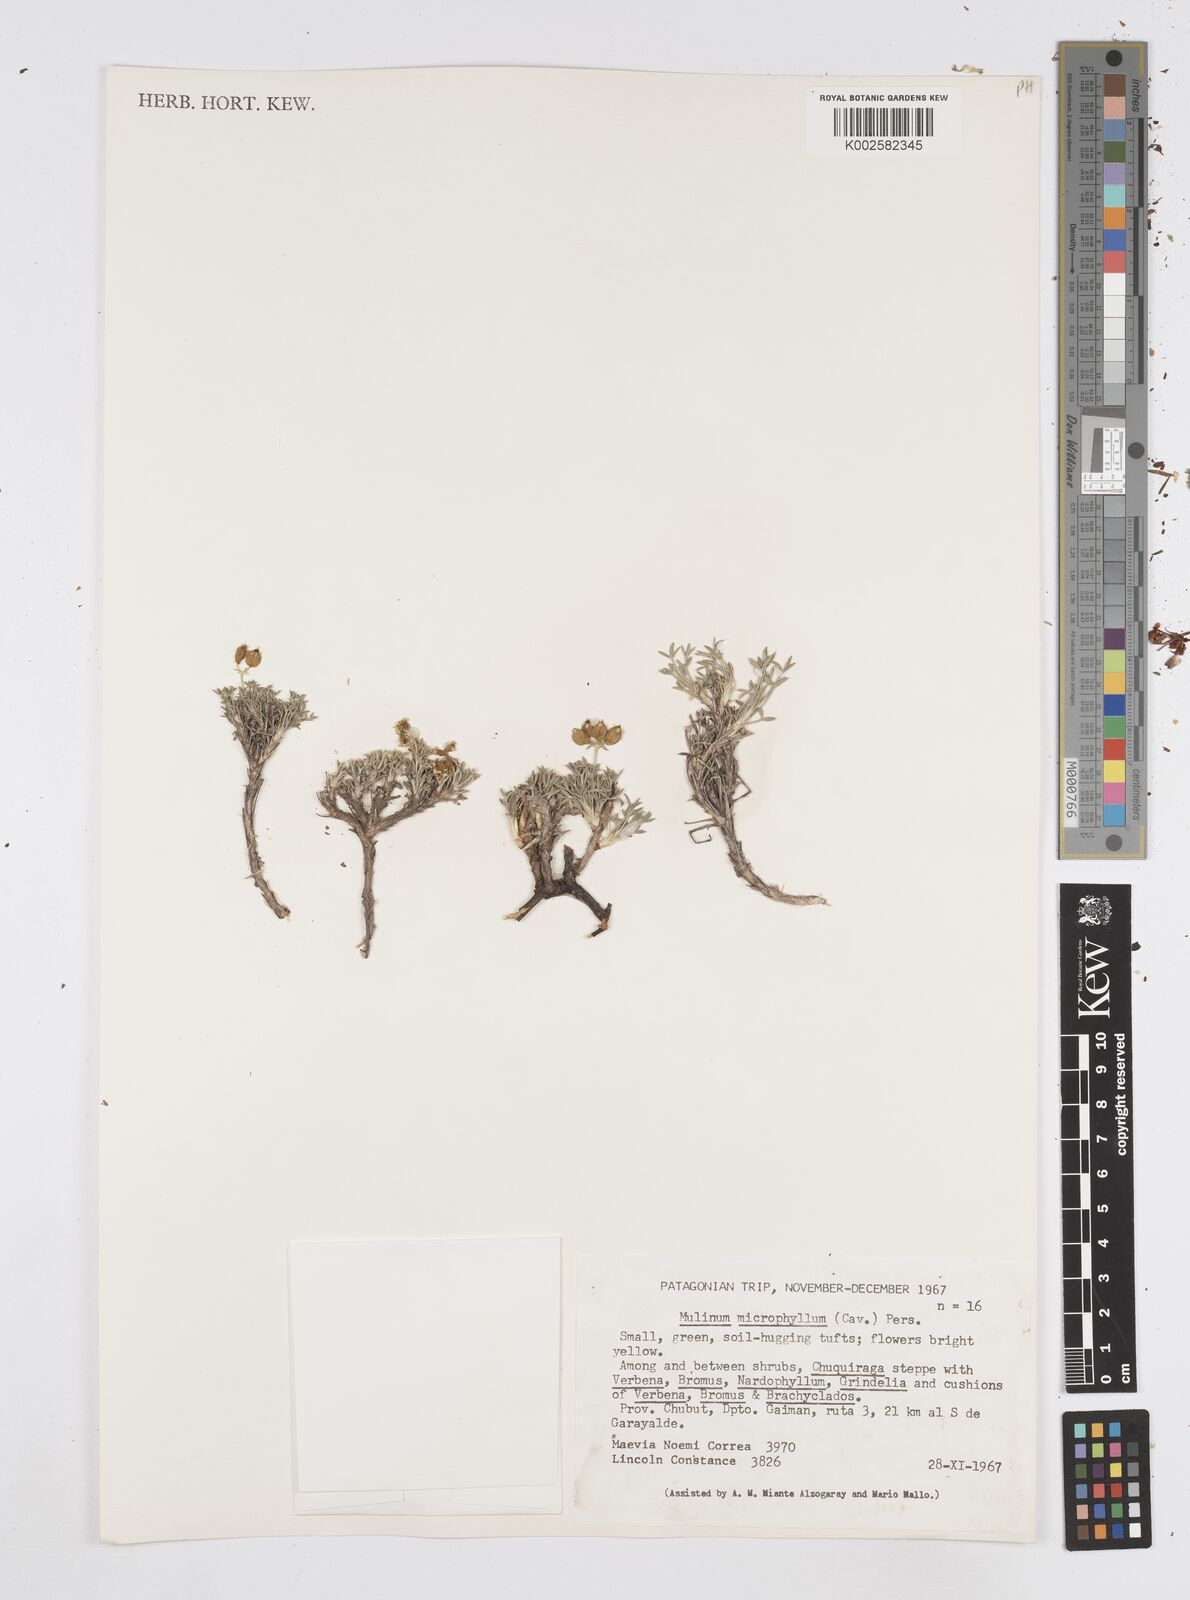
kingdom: Plantae
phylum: Tracheophyta
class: Magnoliopsida
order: Apiales
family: Apiaceae
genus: Azorella
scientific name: Azorella microphylla
